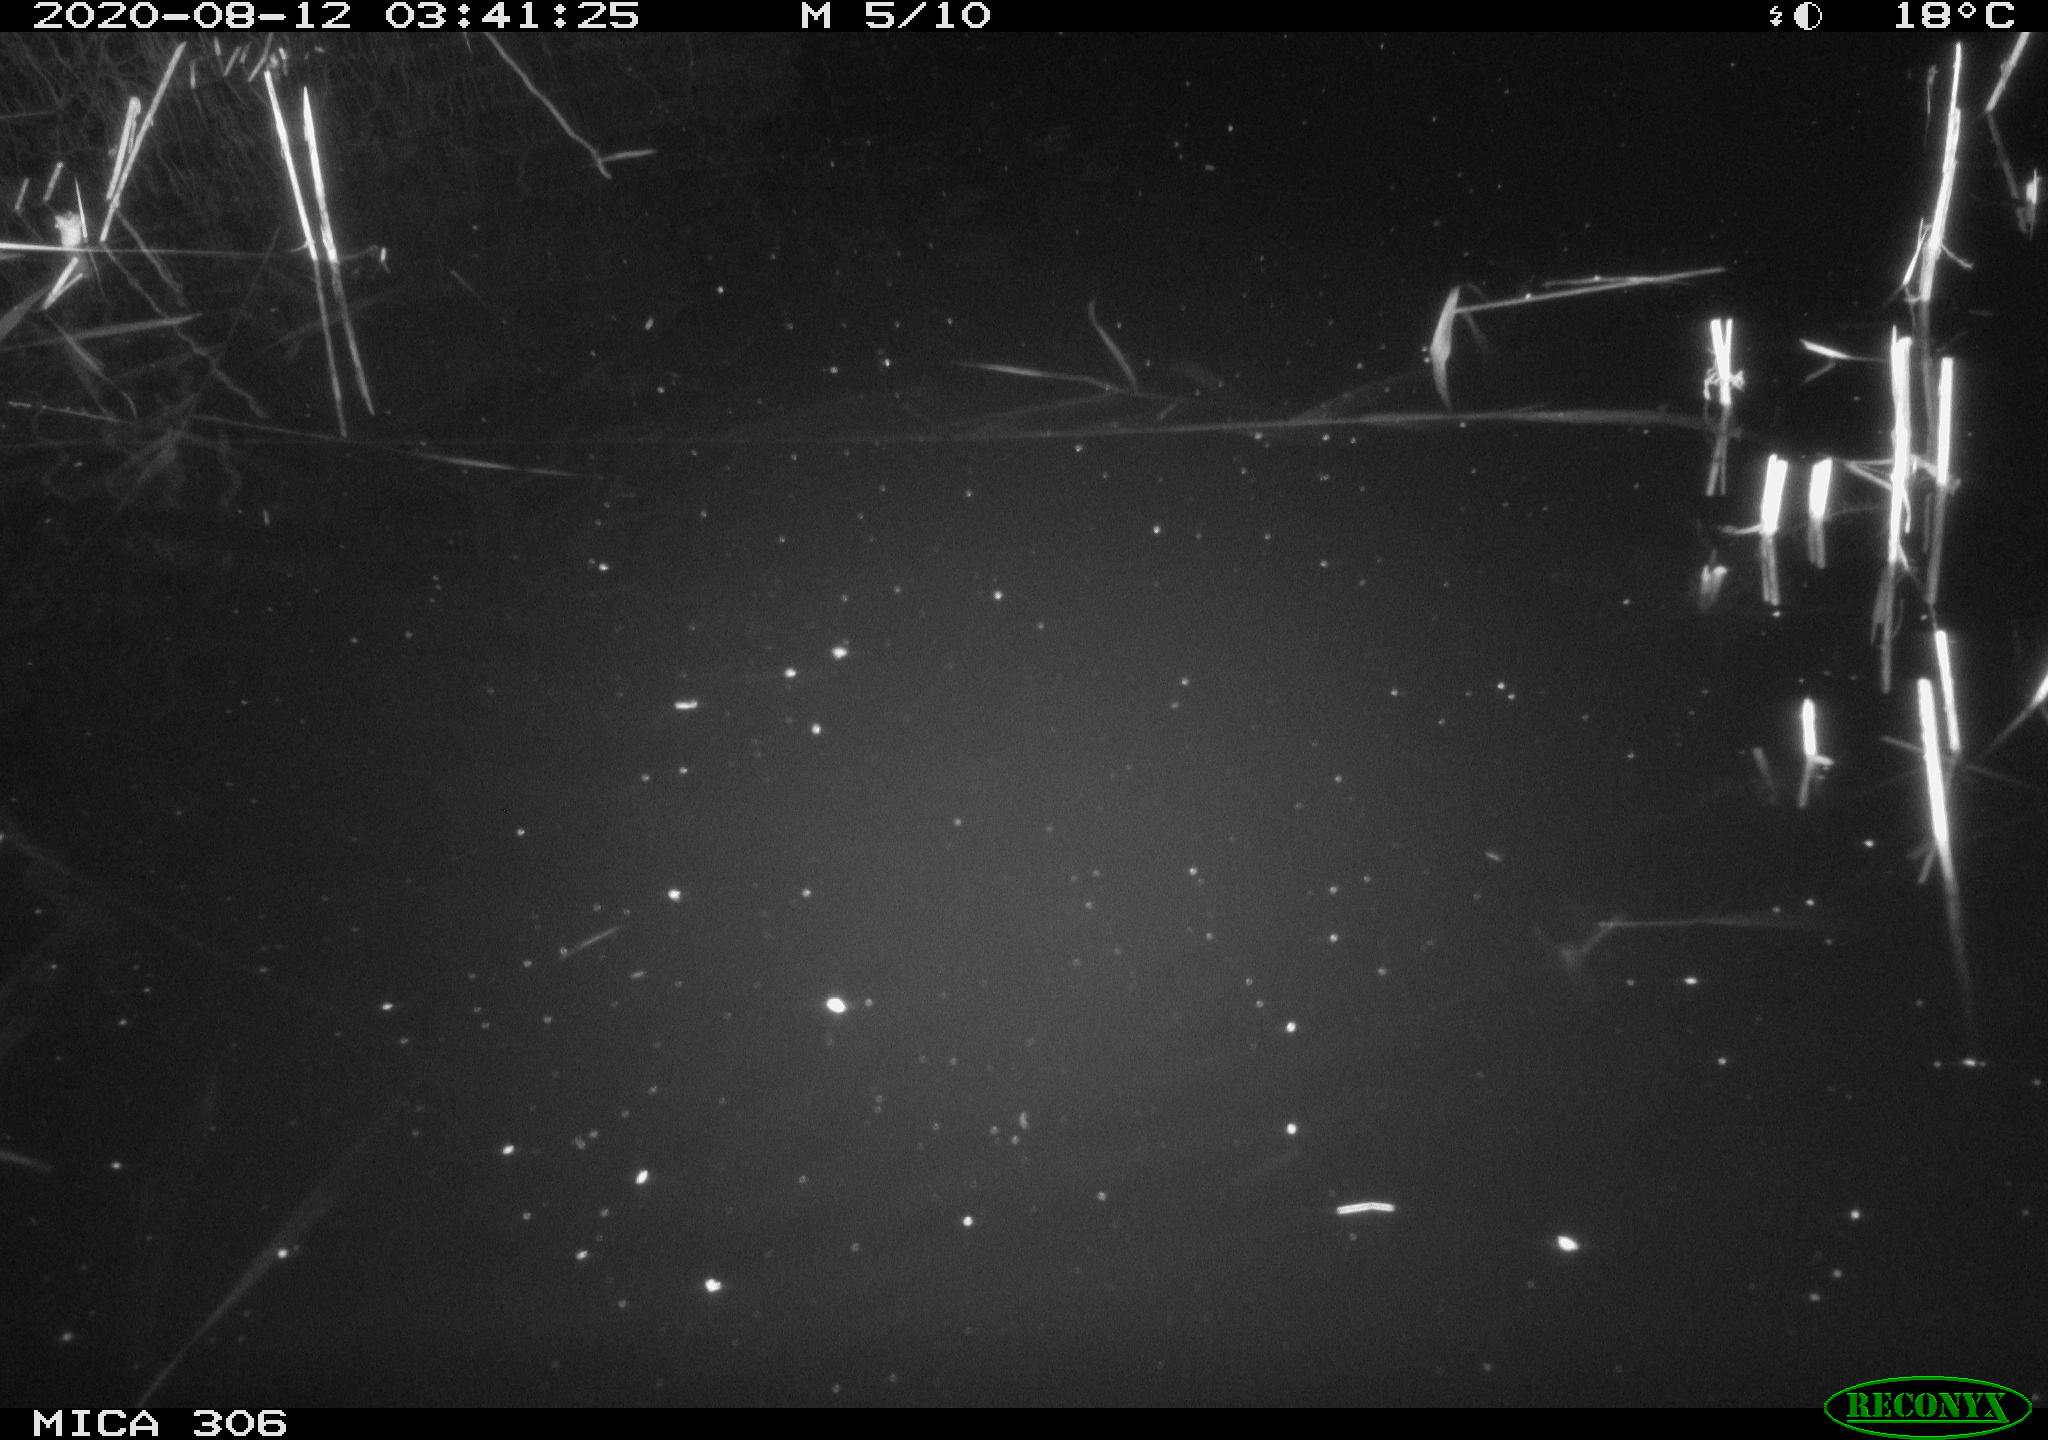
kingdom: Animalia
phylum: Chordata
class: Mammalia
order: Rodentia
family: Muridae
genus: Rattus
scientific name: Rattus norvegicus
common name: Brown rat
